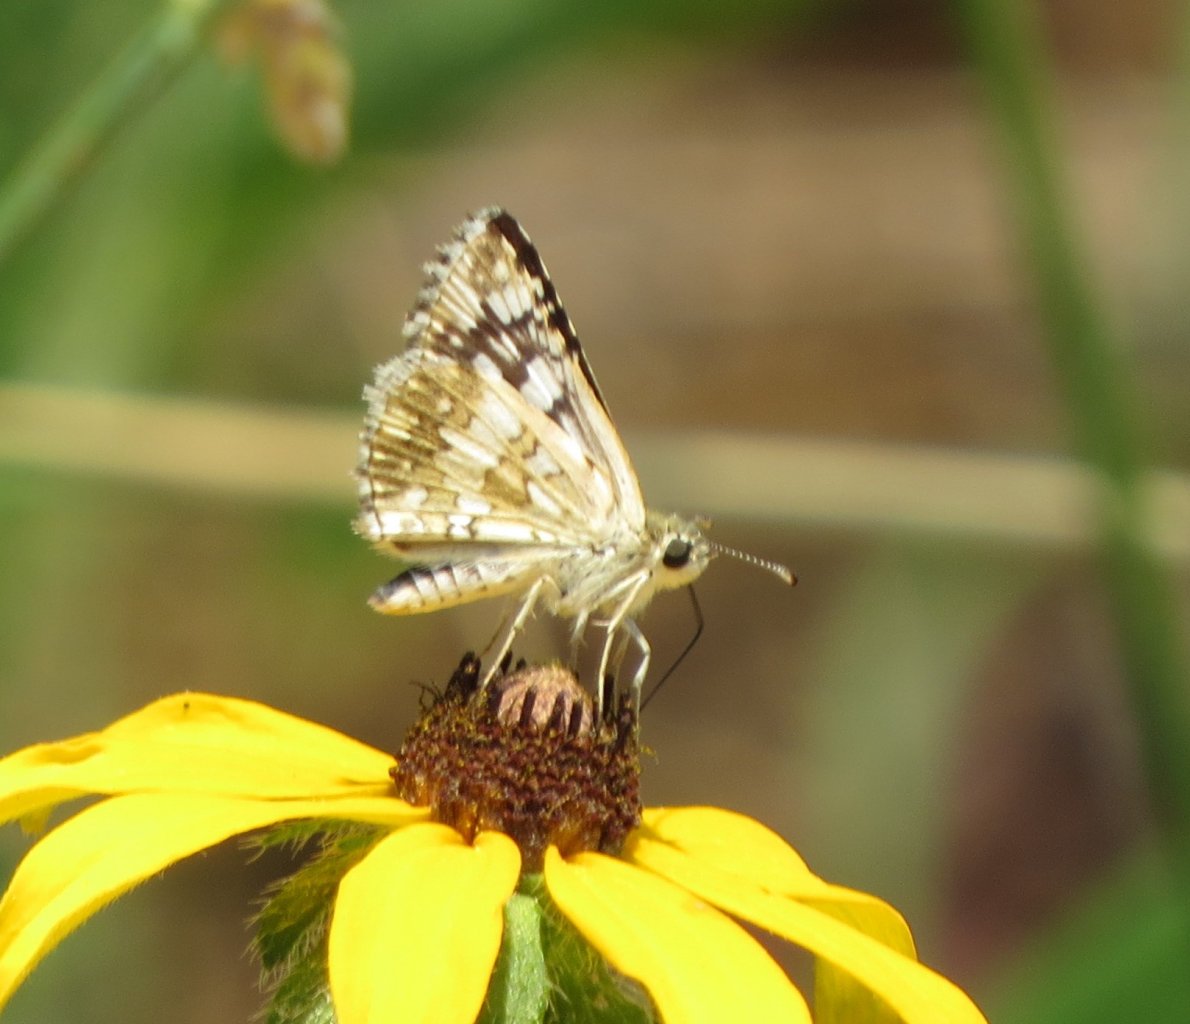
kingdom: Animalia
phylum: Arthropoda
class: Insecta
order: Lepidoptera
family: Hesperiidae
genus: Pyrgus
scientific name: Pyrgus communis
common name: White Checkered-Skipper
